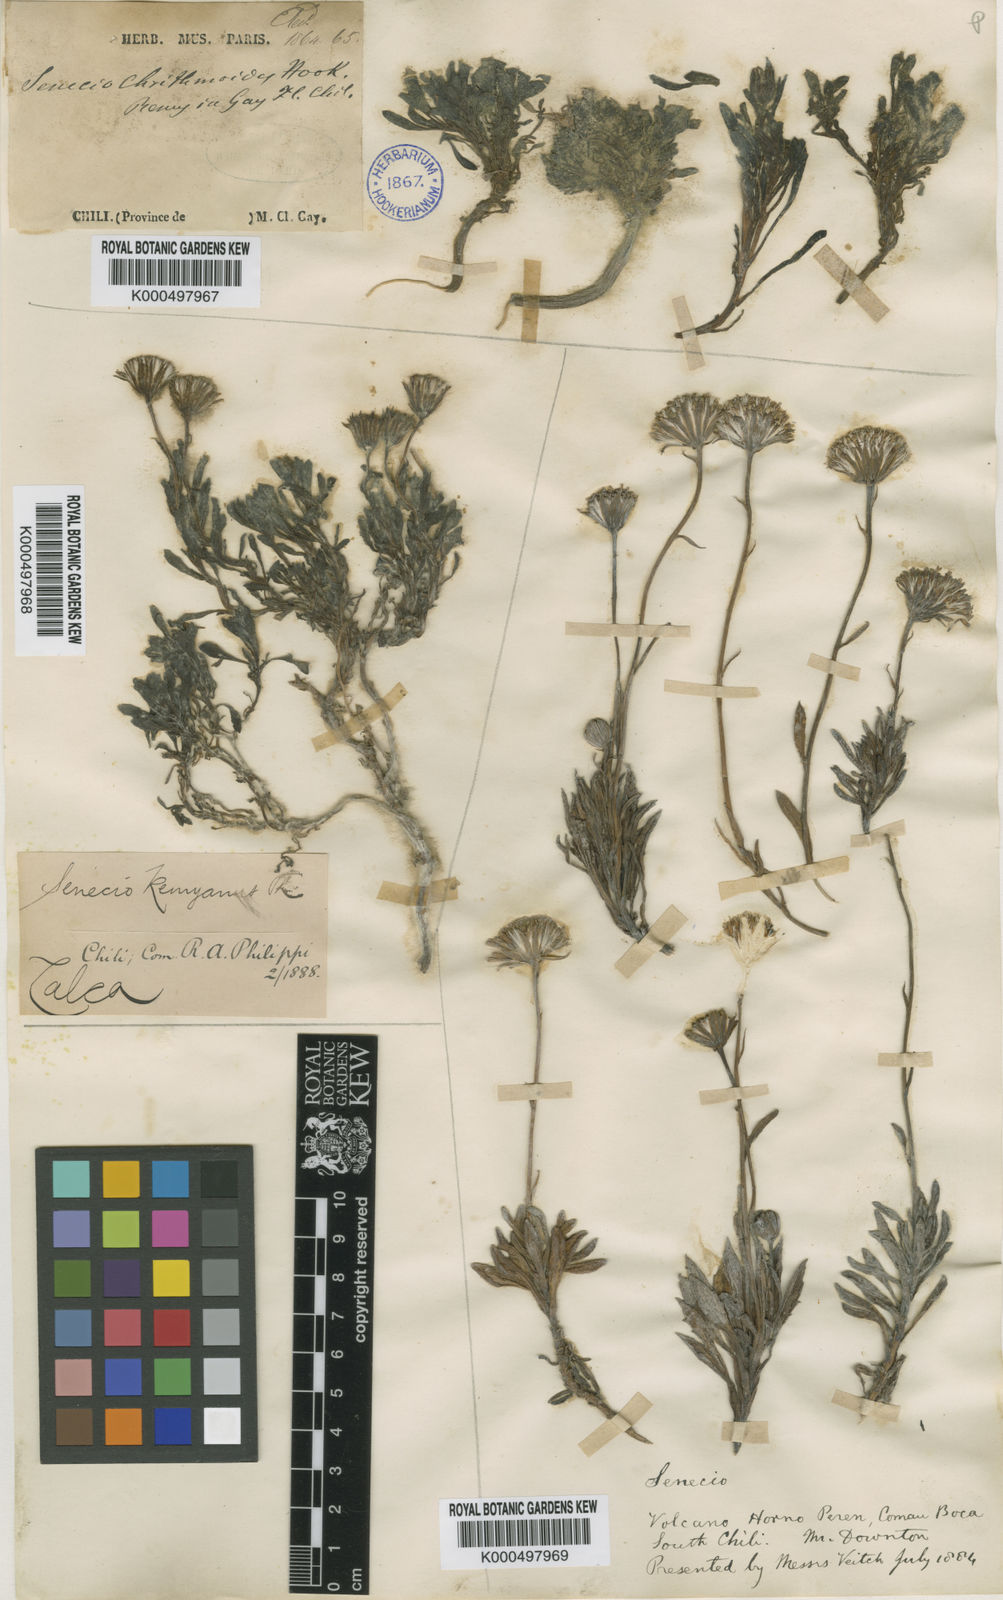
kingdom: Plantae
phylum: Tracheophyta
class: Magnoliopsida
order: Asterales
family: Asteraceae
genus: Senecio
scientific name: Senecio crithmoides
